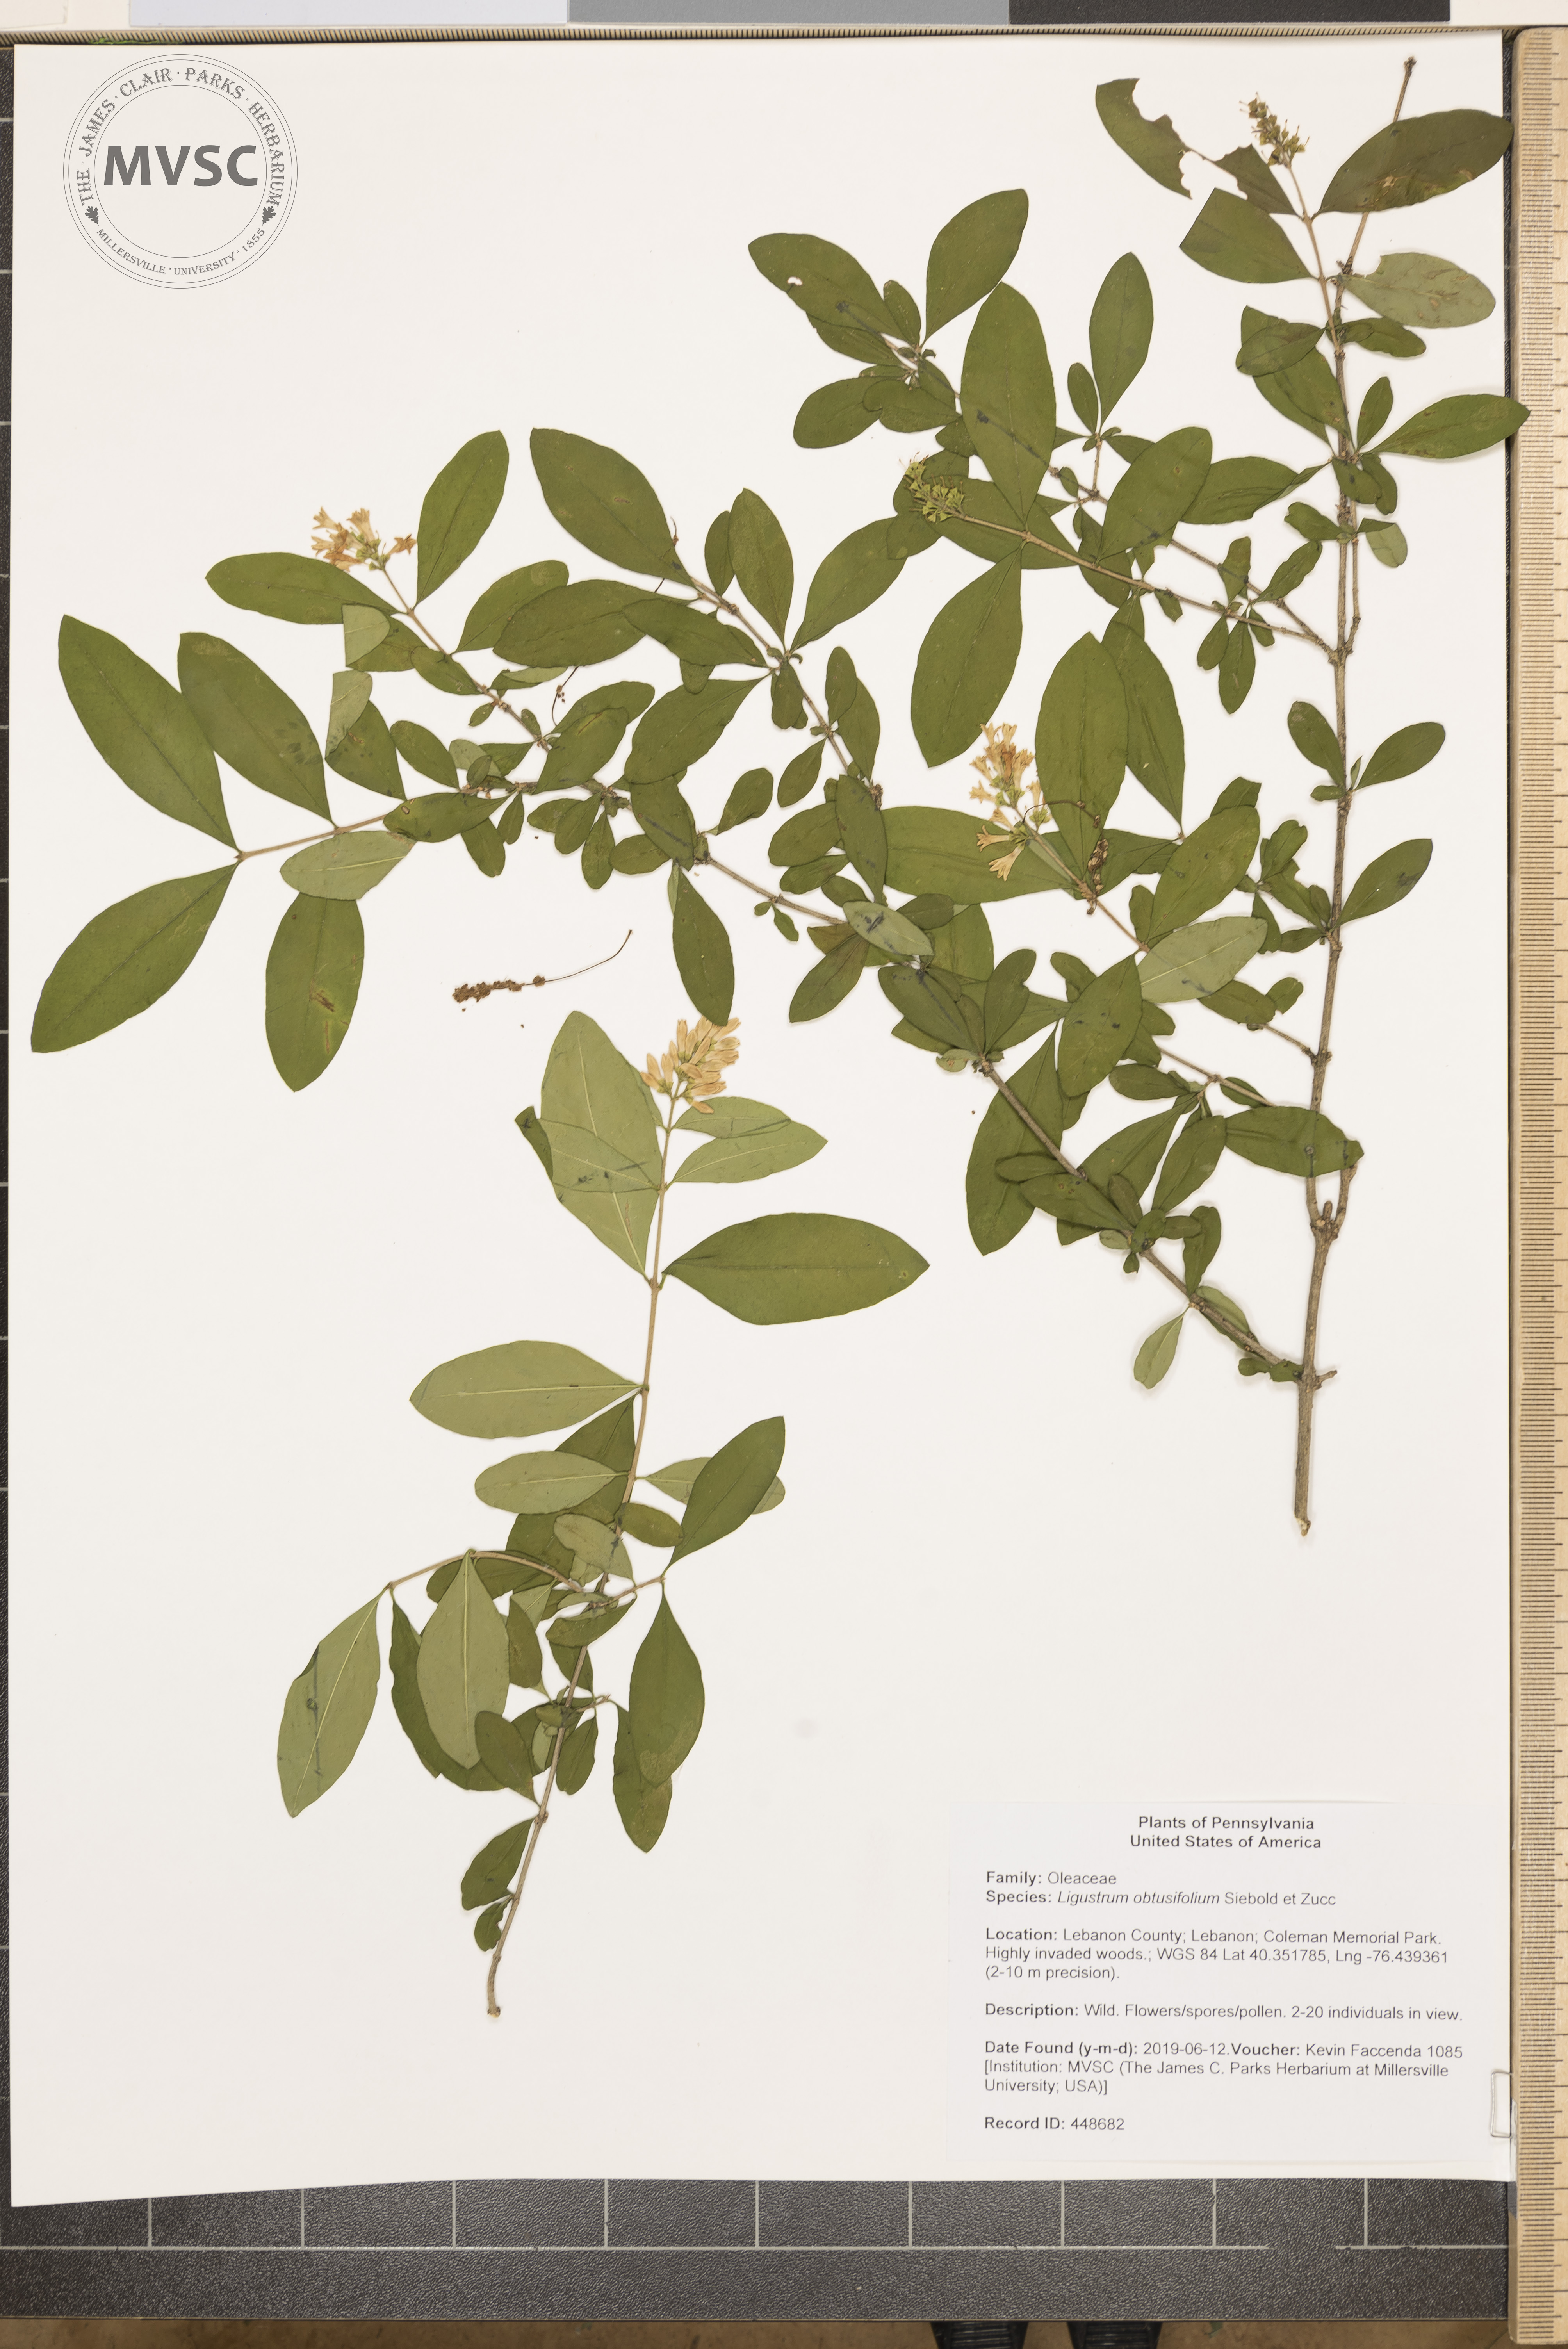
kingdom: Plantae
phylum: Tracheophyta
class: Magnoliopsida
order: Lamiales
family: Oleaceae
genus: Ligustrum
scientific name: Ligustrum obtusifolium
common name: Border privet
